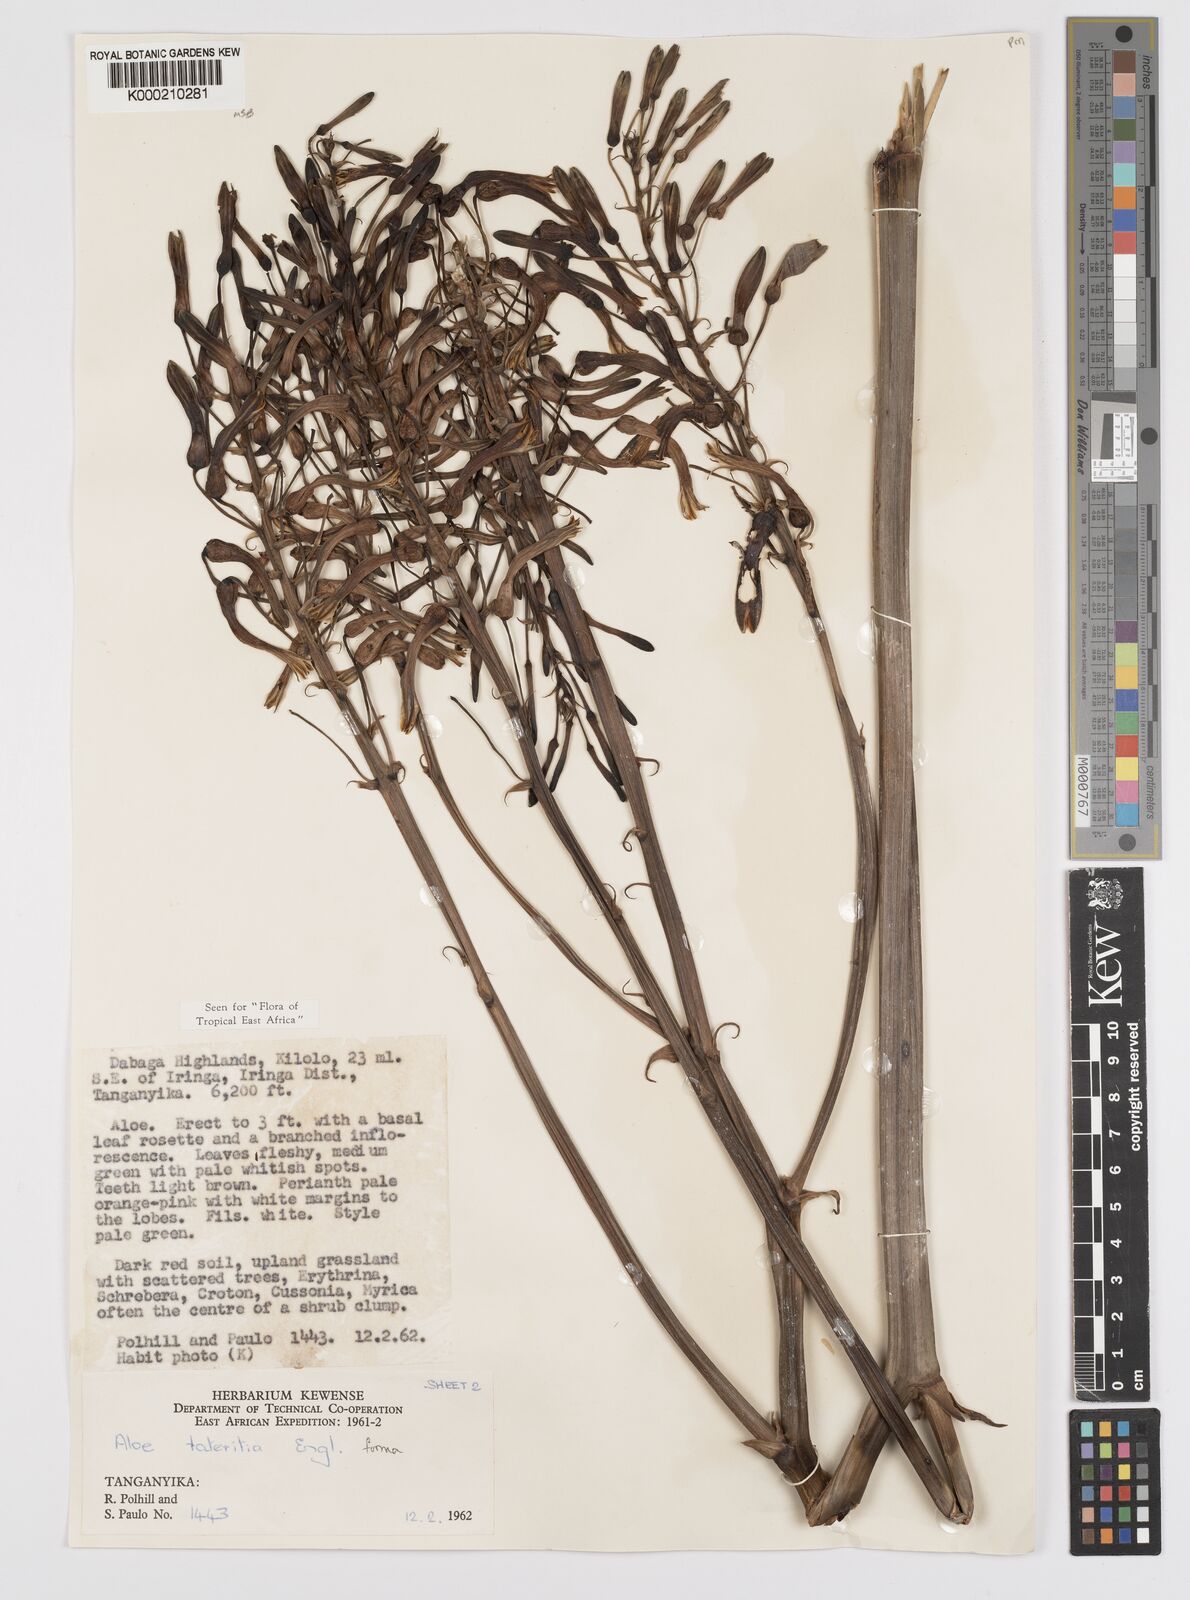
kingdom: Plantae
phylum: Tracheophyta
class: Liliopsida
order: Asparagales
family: Asphodelaceae
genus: Aloe
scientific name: Aloe lateritia
